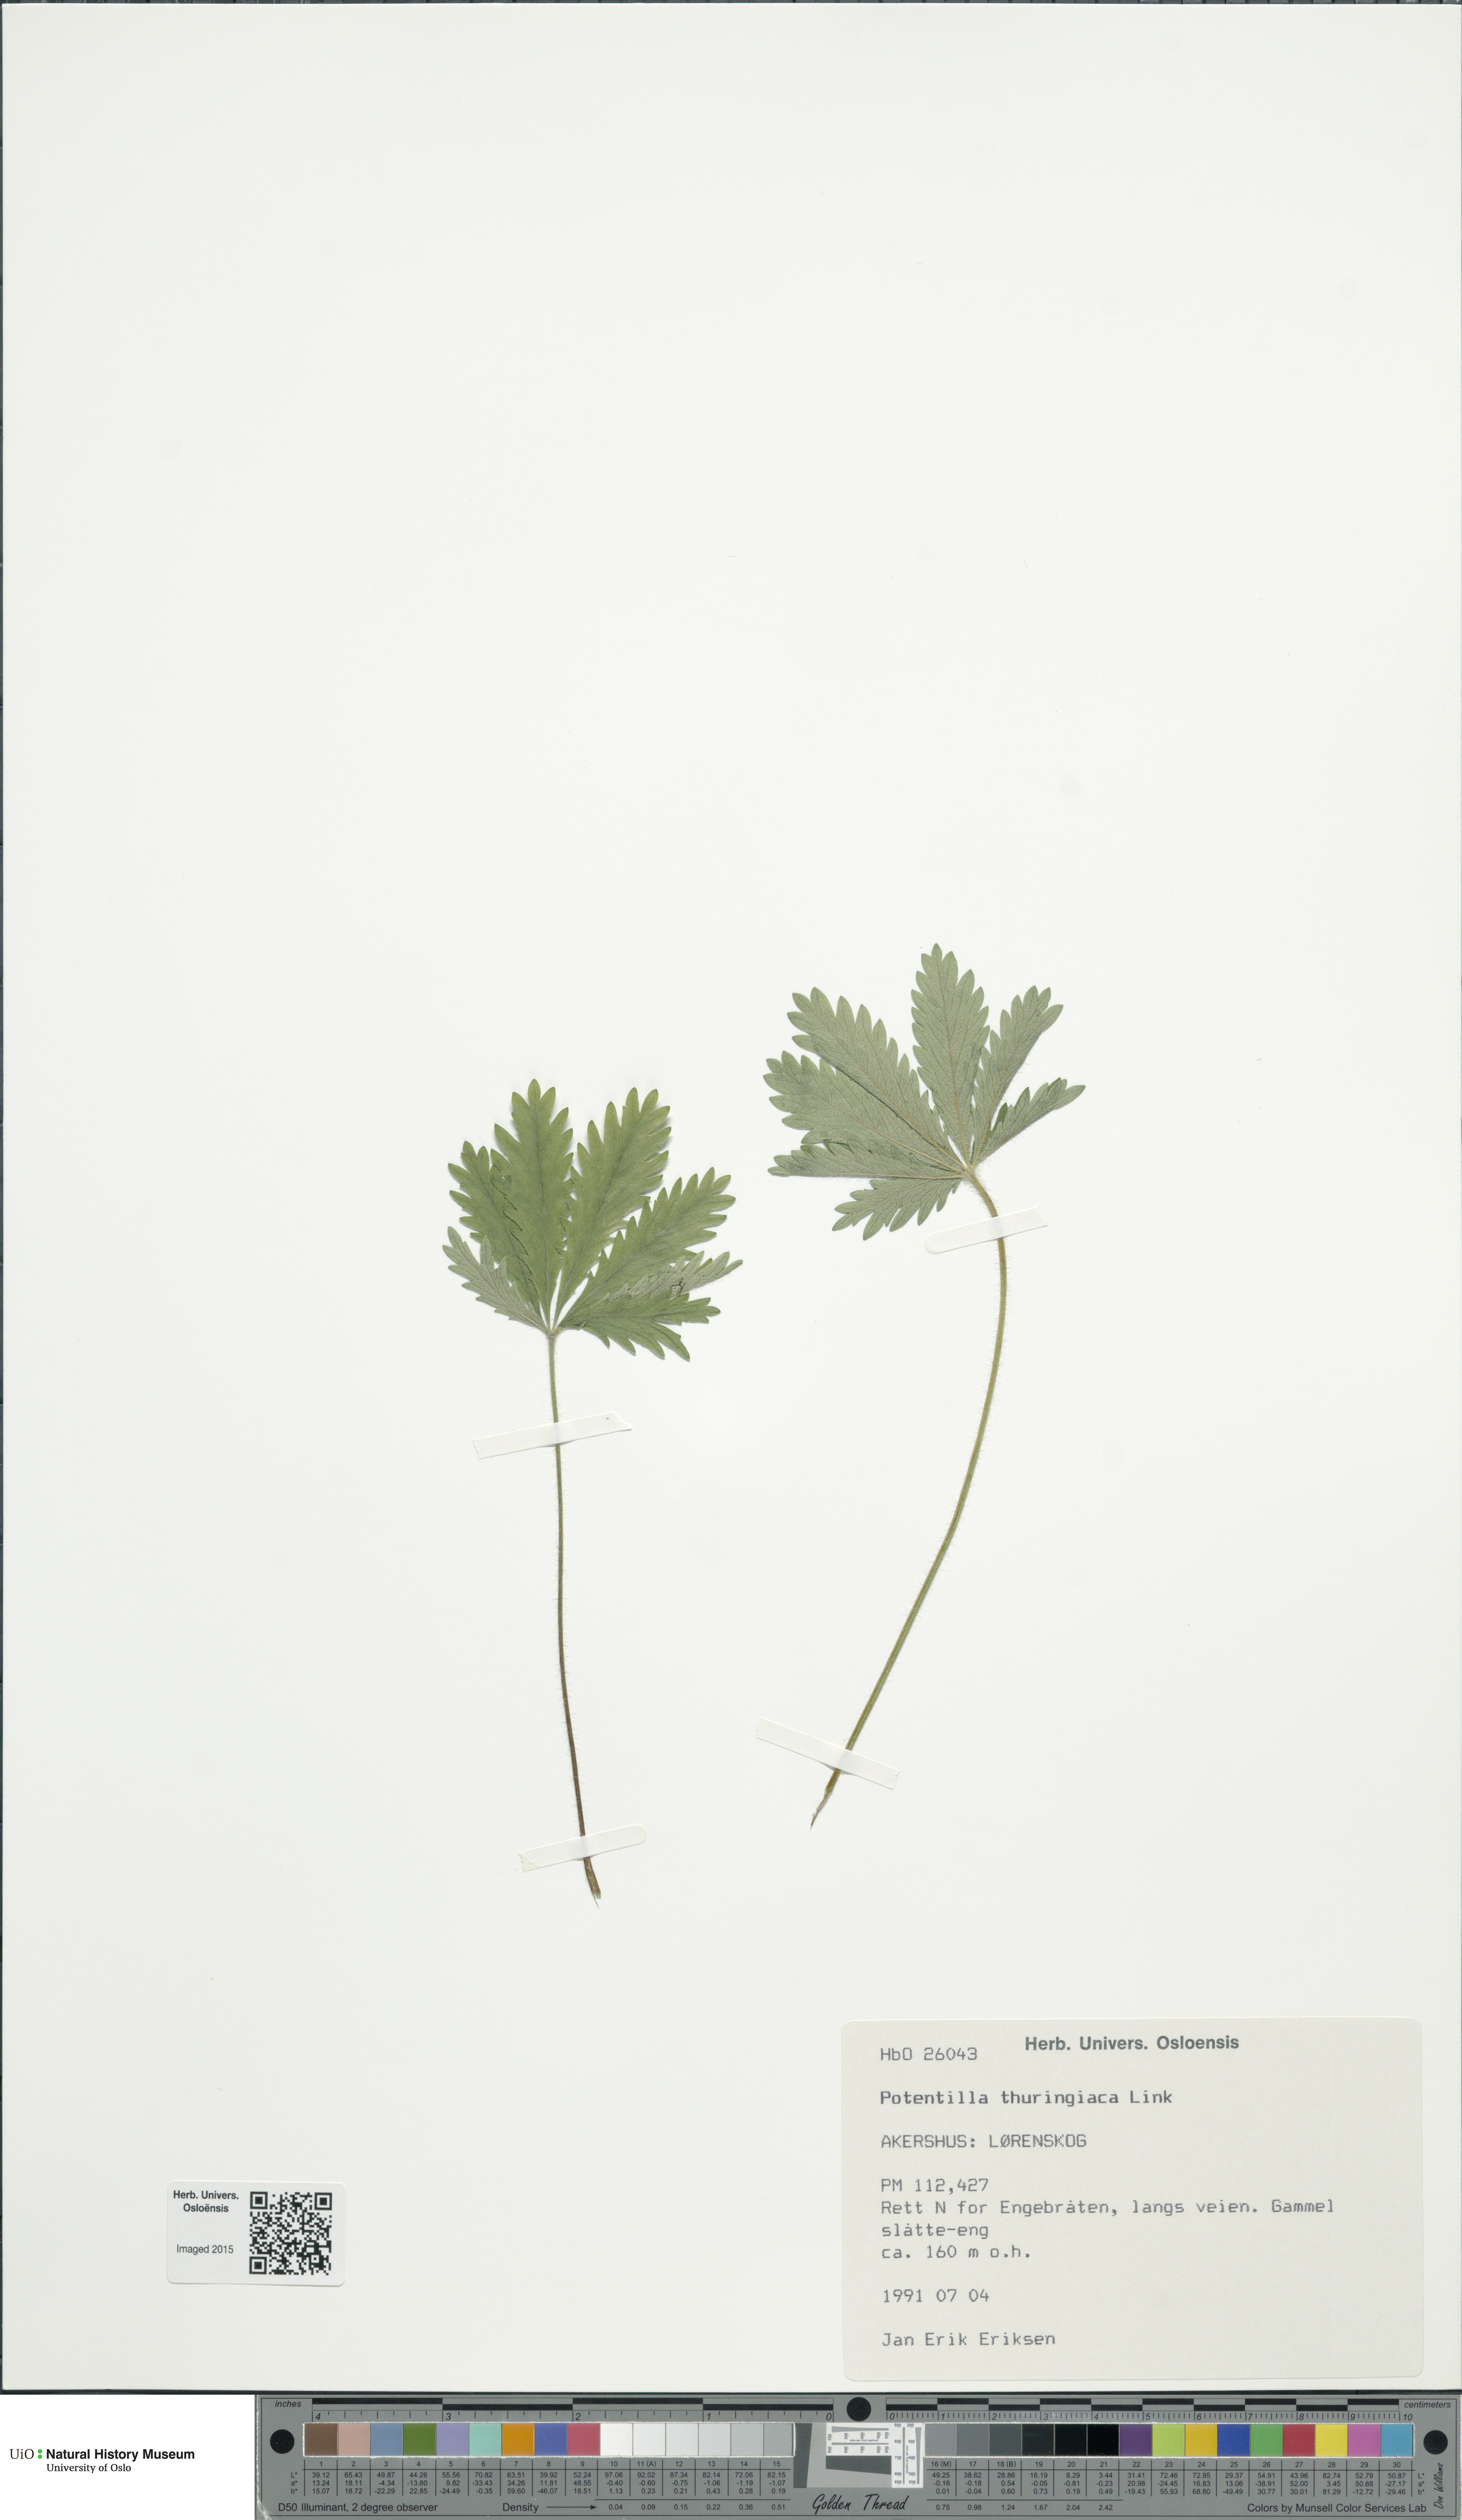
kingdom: Plantae
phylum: Tracheophyta
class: Magnoliopsida
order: Rosales
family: Rosaceae
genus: Potentilla
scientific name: Potentilla thuringiaca
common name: European cinquefoil
